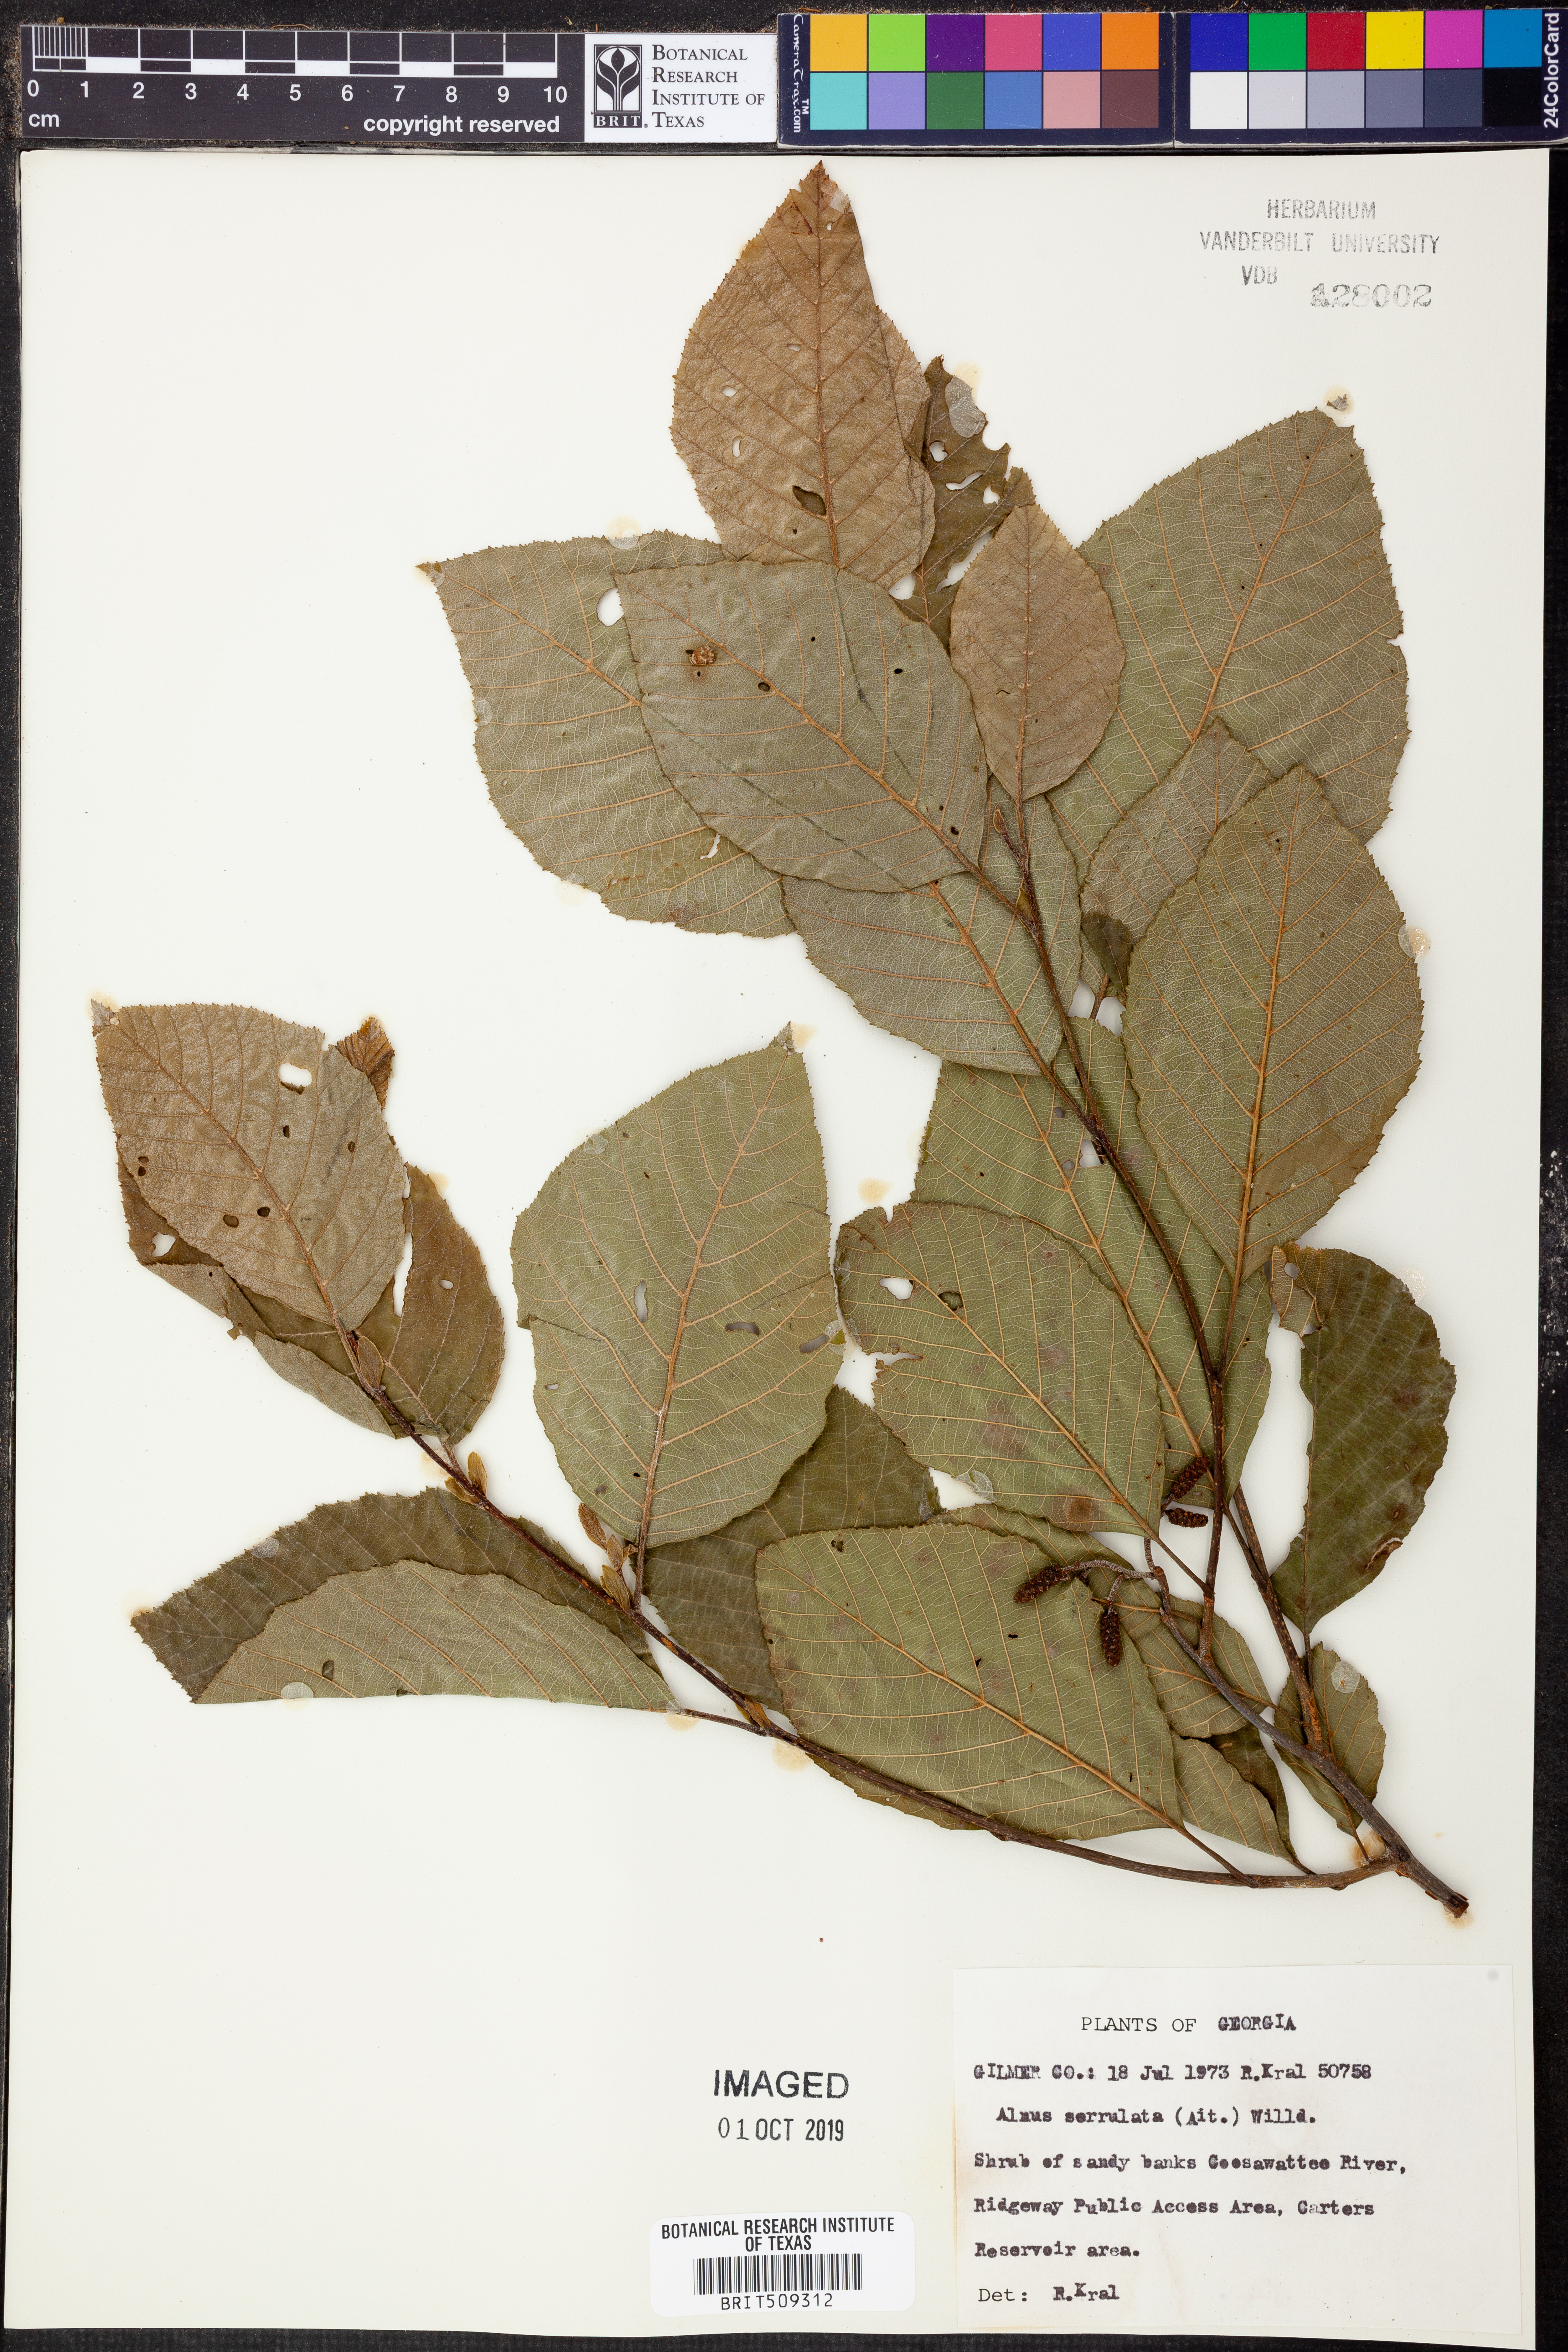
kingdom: Plantae
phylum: Tracheophyta
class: Magnoliopsida
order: Fagales
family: Betulaceae
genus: Alnus
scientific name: Alnus serrulata
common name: Hazel alder
